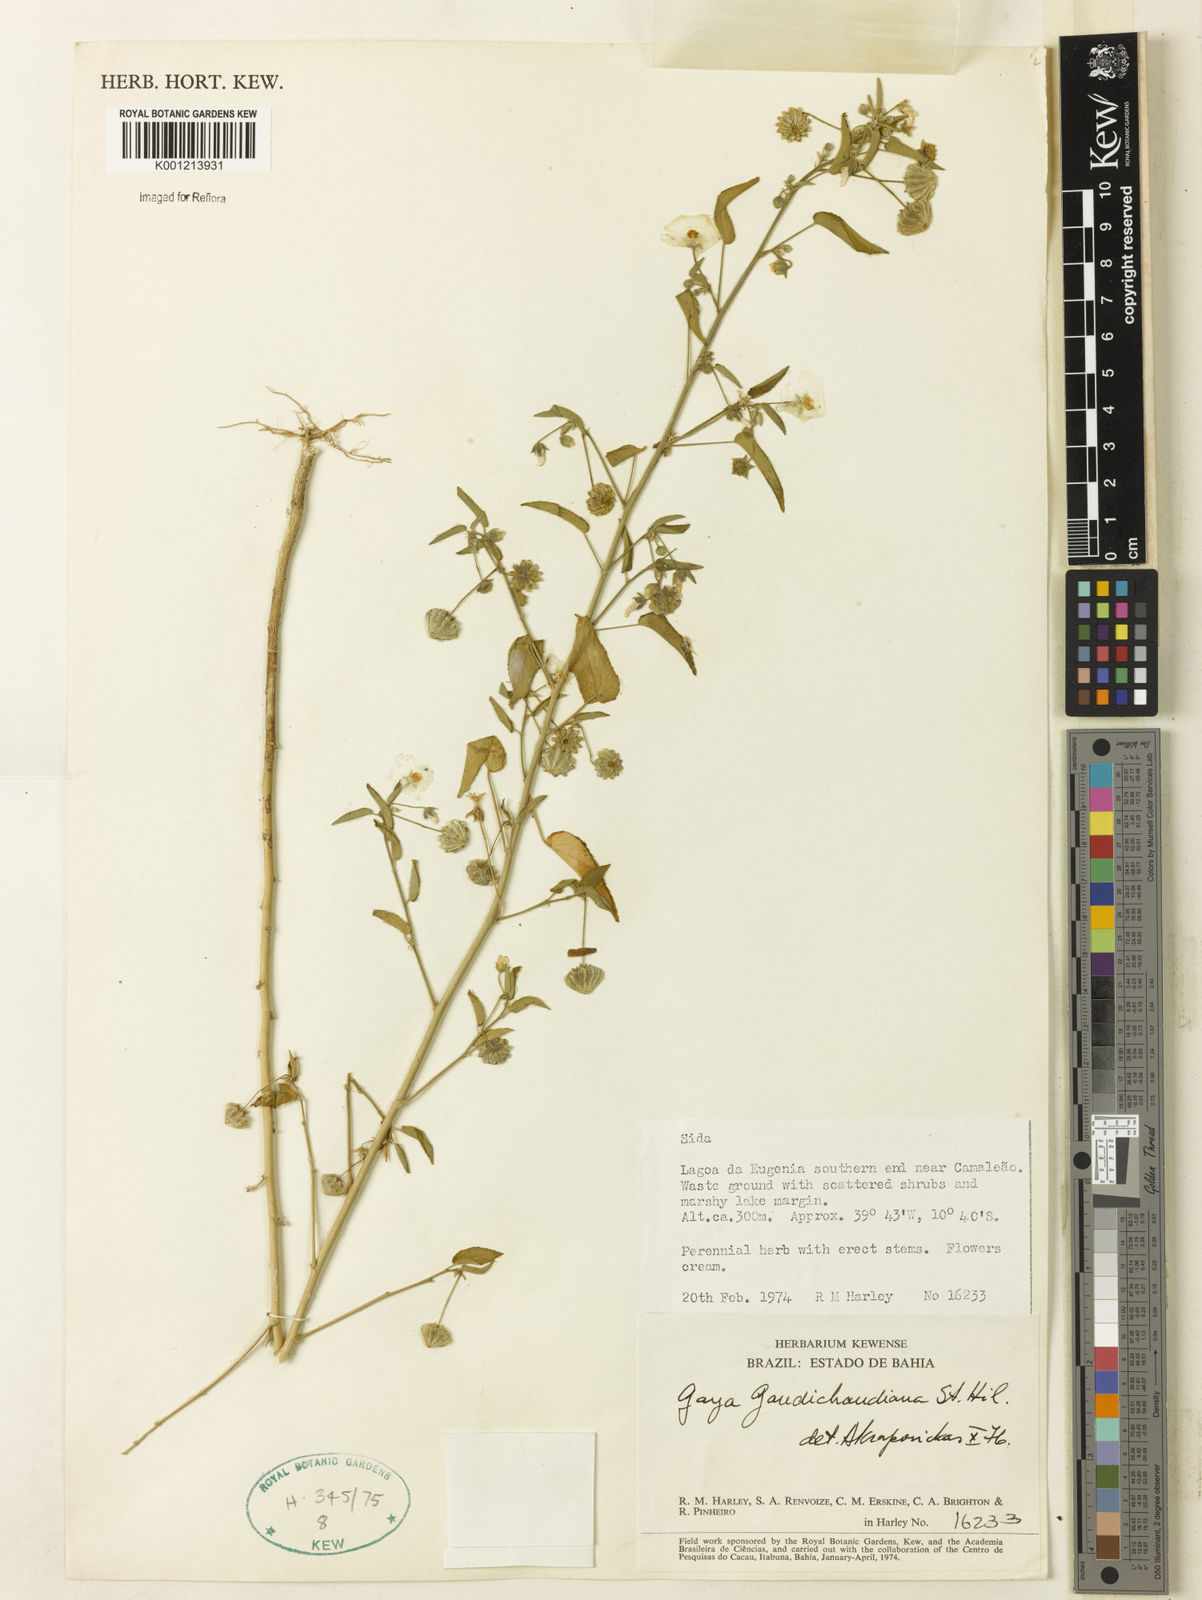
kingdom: Plantae
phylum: Tracheophyta
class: Magnoliopsida
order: Malvales
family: Malvaceae
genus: Gaya
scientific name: Gaya gaudichaudiana
